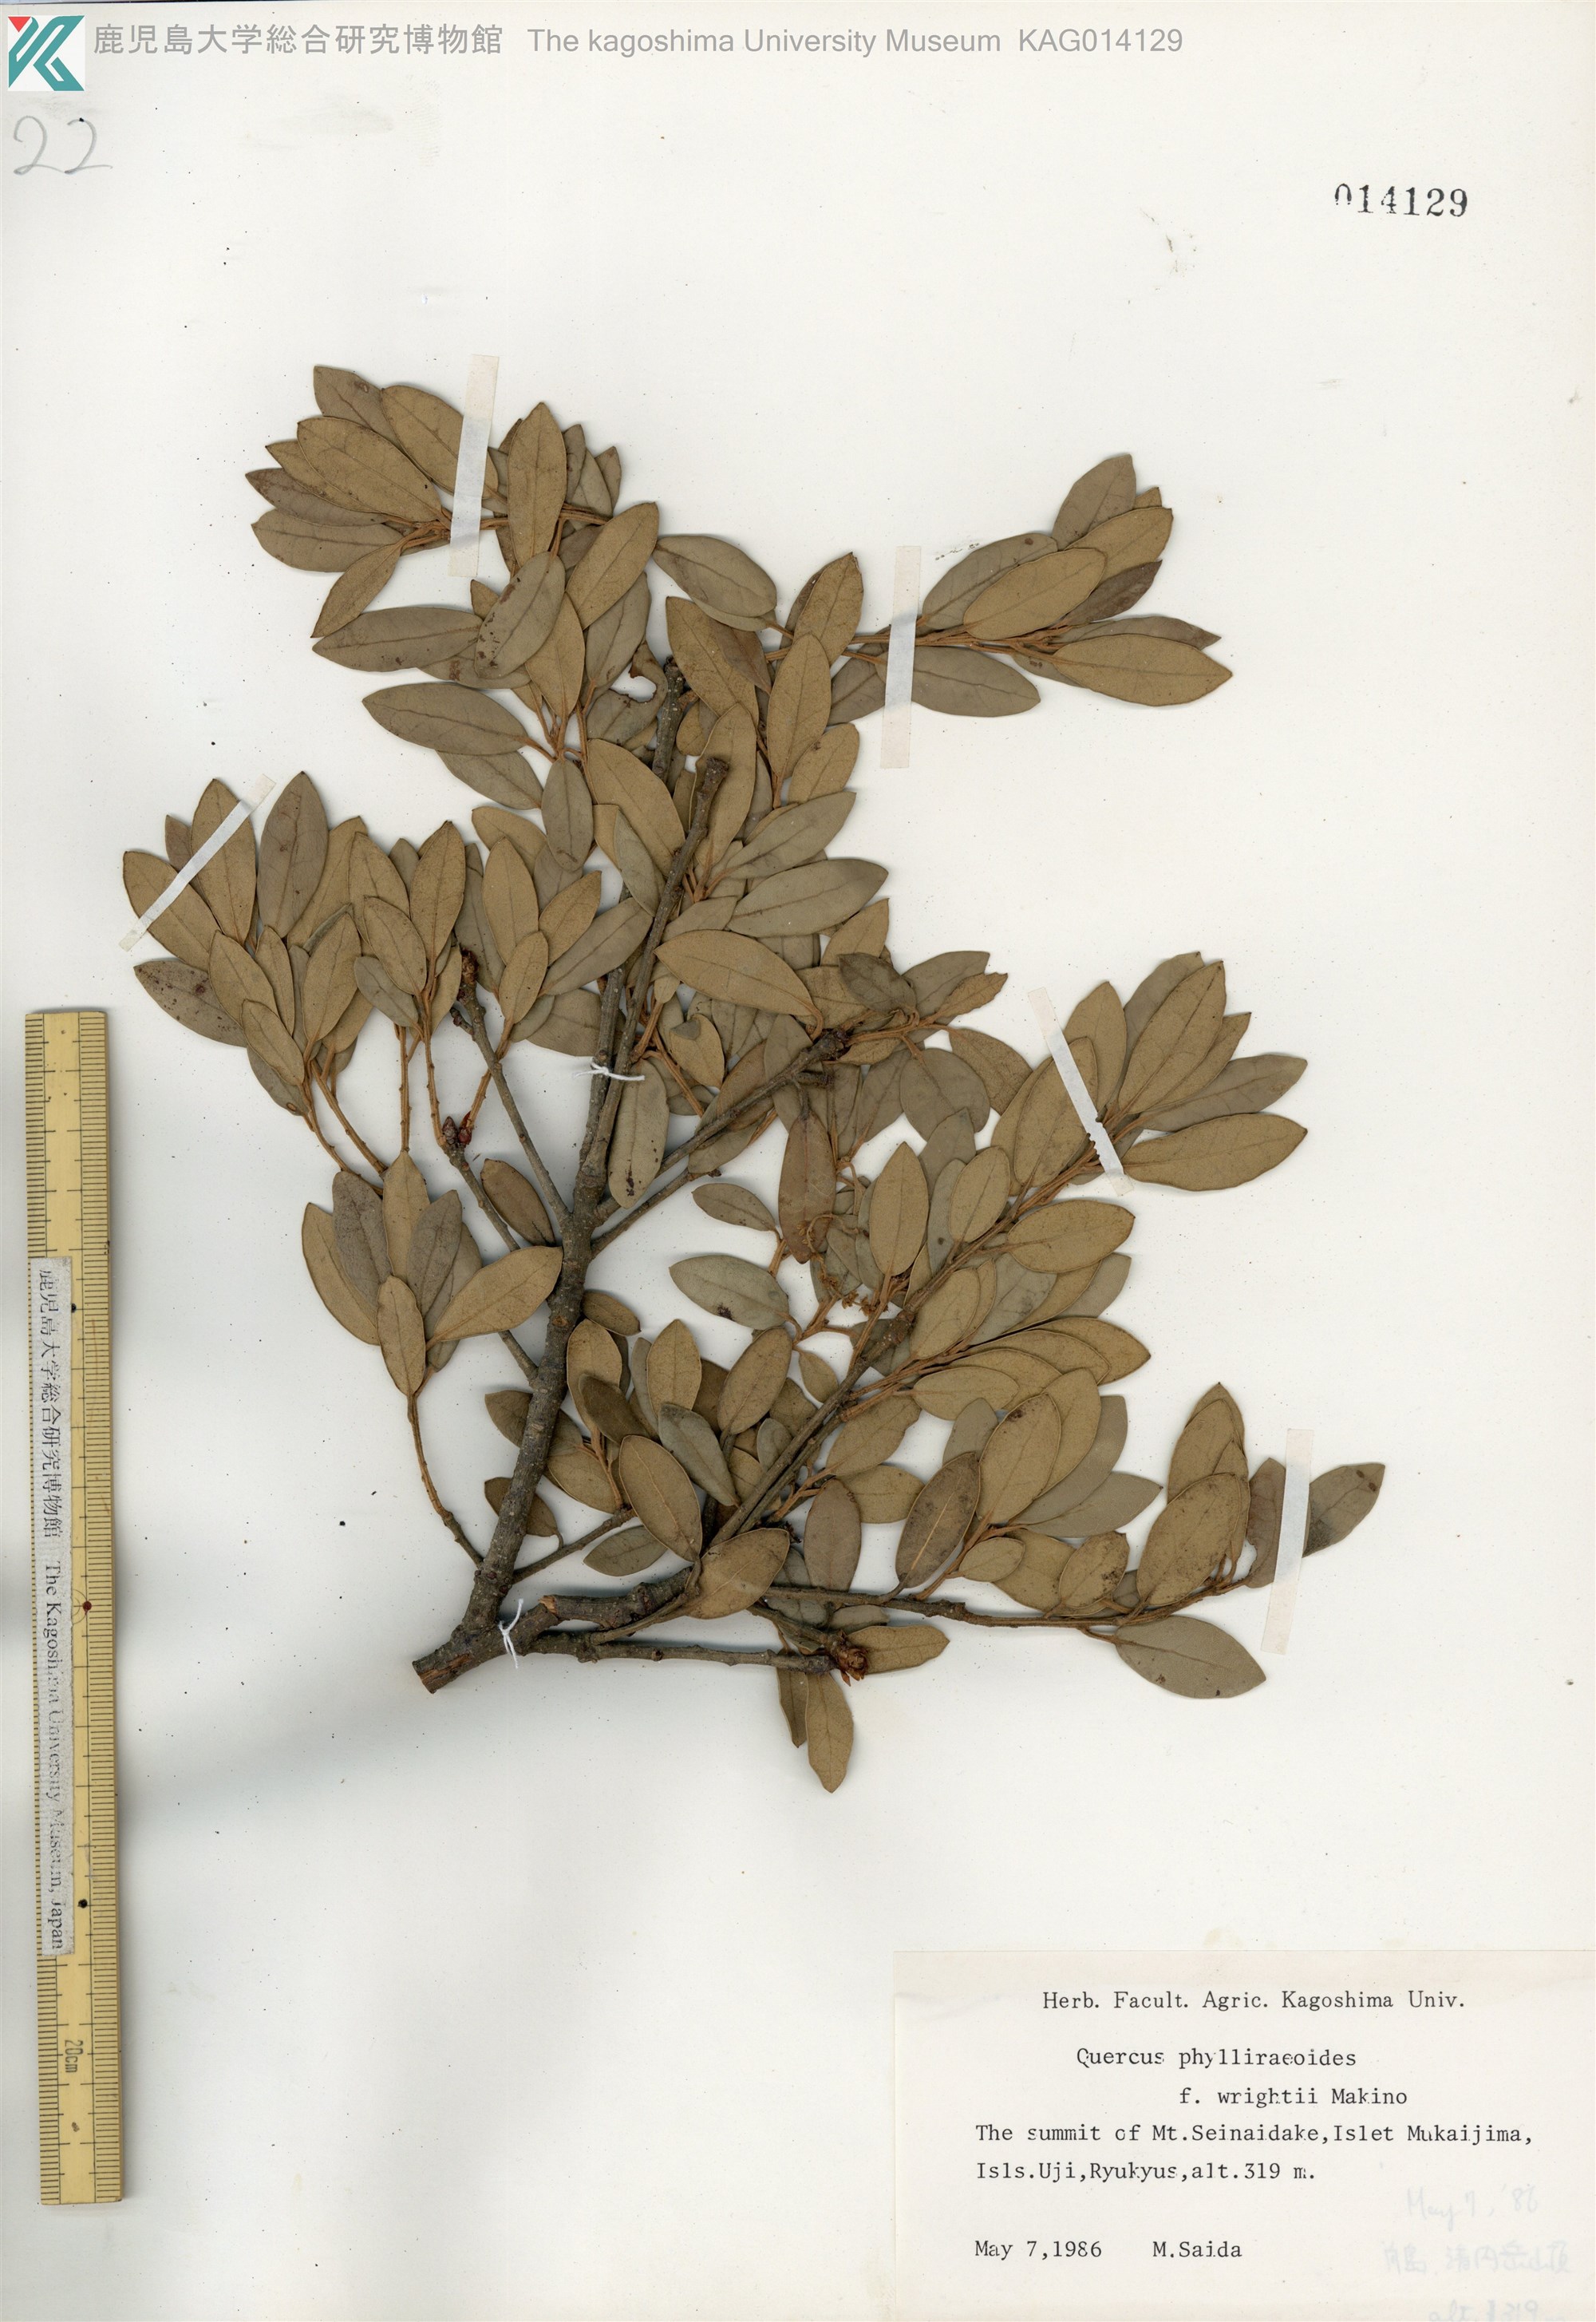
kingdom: Plantae
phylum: Tracheophyta
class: Magnoliopsida
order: Fagales
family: Fagaceae
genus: Quercus
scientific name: Quercus phillyreoides
